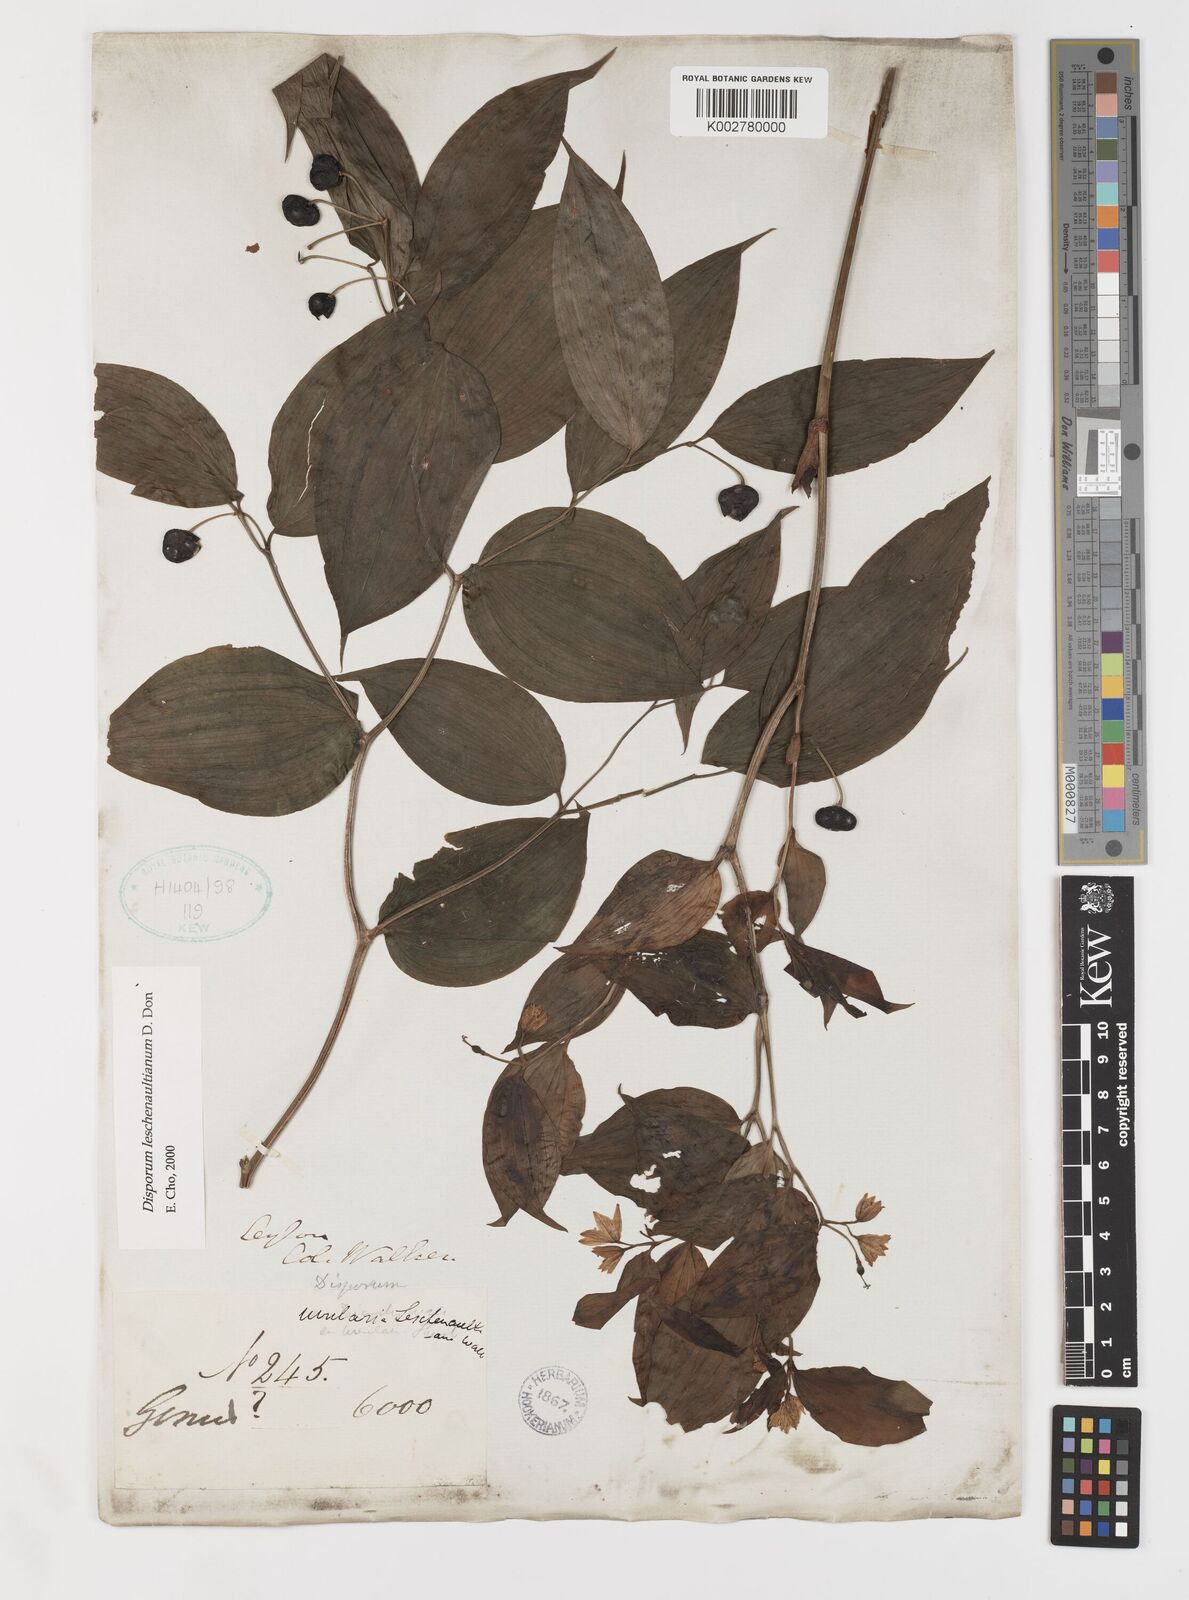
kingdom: Plantae
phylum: Tracheophyta
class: Liliopsida
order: Liliales
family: Colchicaceae
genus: Disporum
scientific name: Disporum cantoniense
